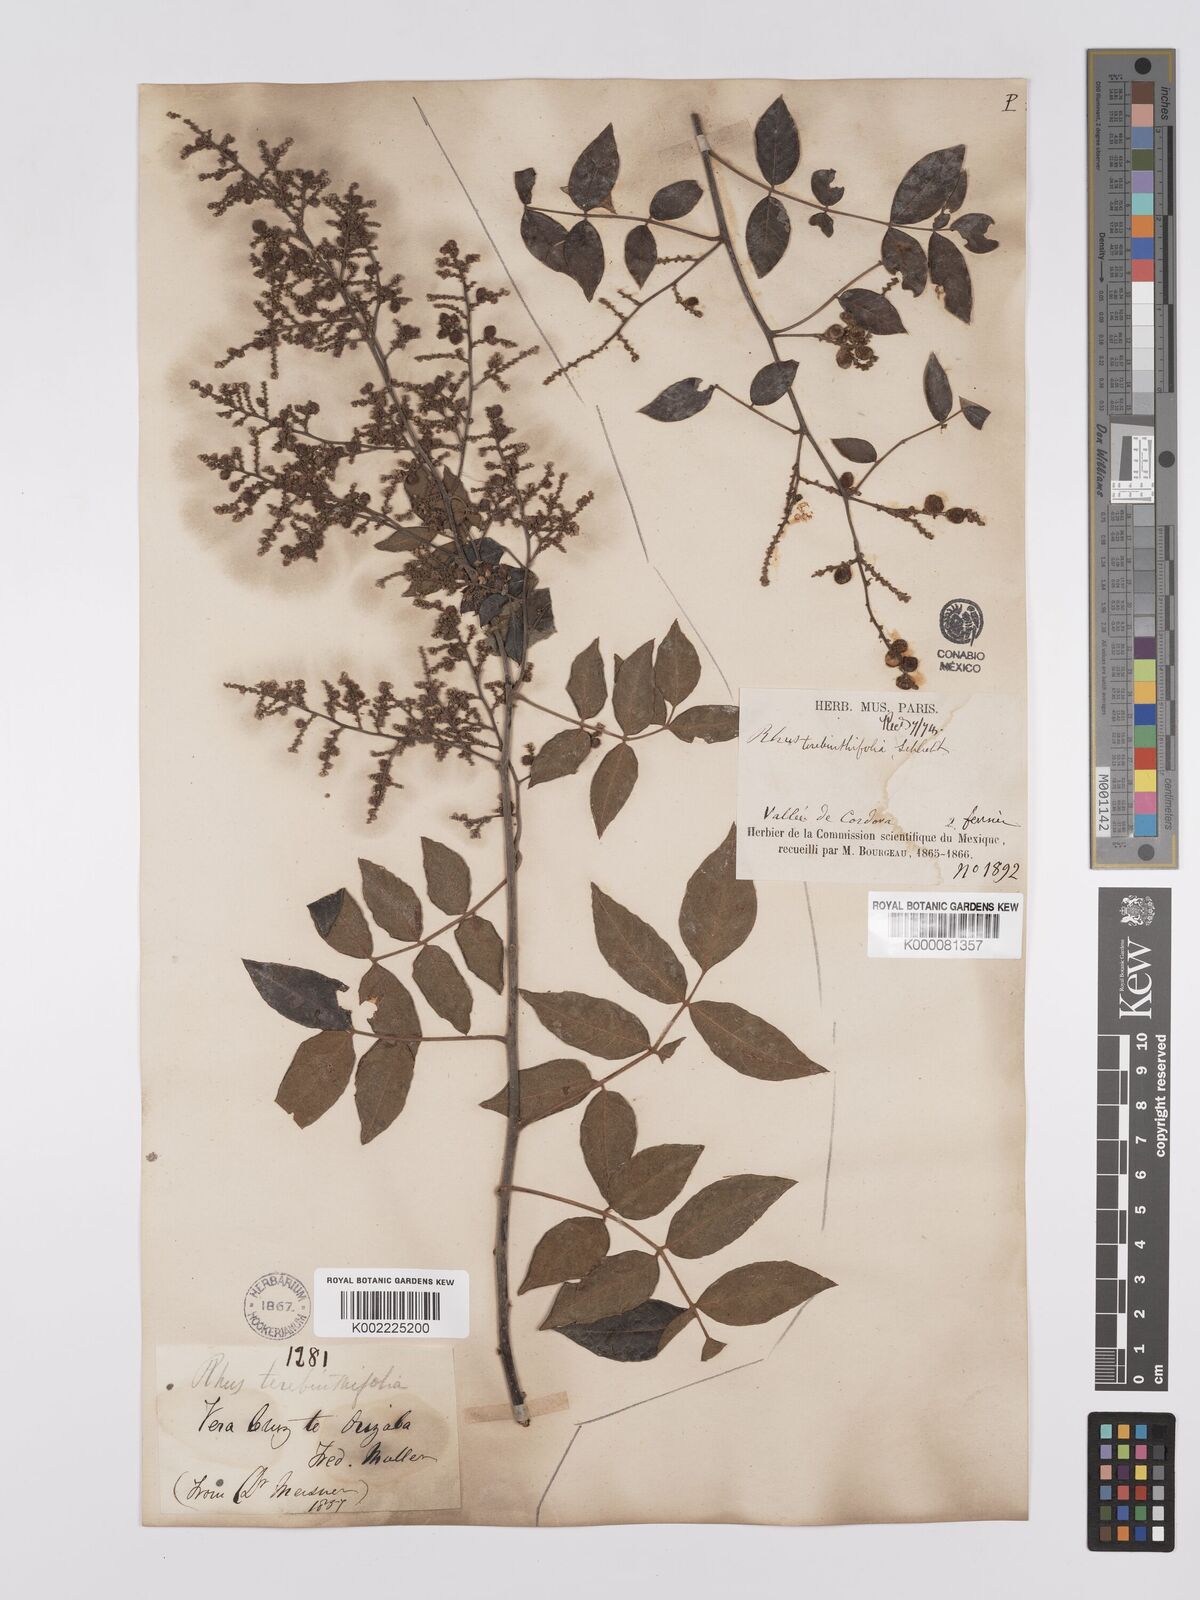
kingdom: Plantae
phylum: Tracheophyta
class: Magnoliopsida
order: Sapindales
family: Anacardiaceae
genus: Rhus
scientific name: Rhus
